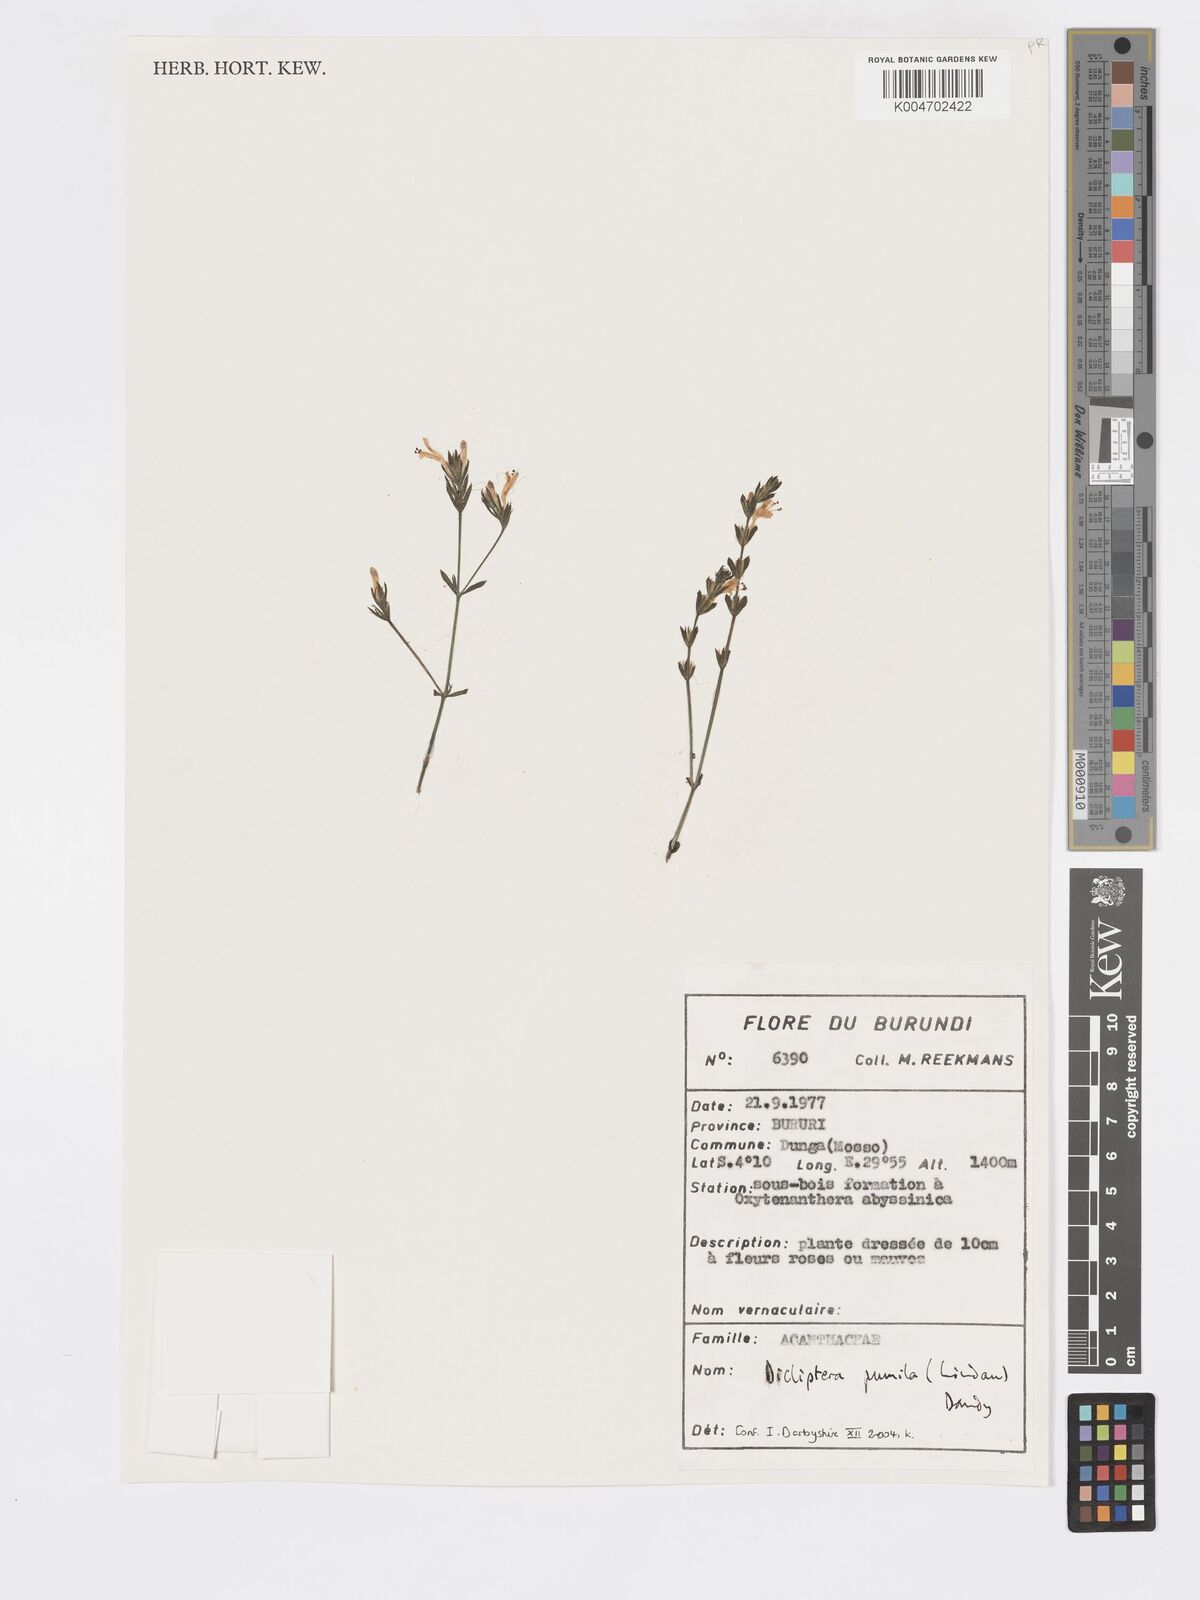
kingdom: Plantae
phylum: Tracheophyta
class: Magnoliopsida
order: Lamiales
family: Acanthaceae
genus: Dicliptera
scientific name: Dicliptera pumila
